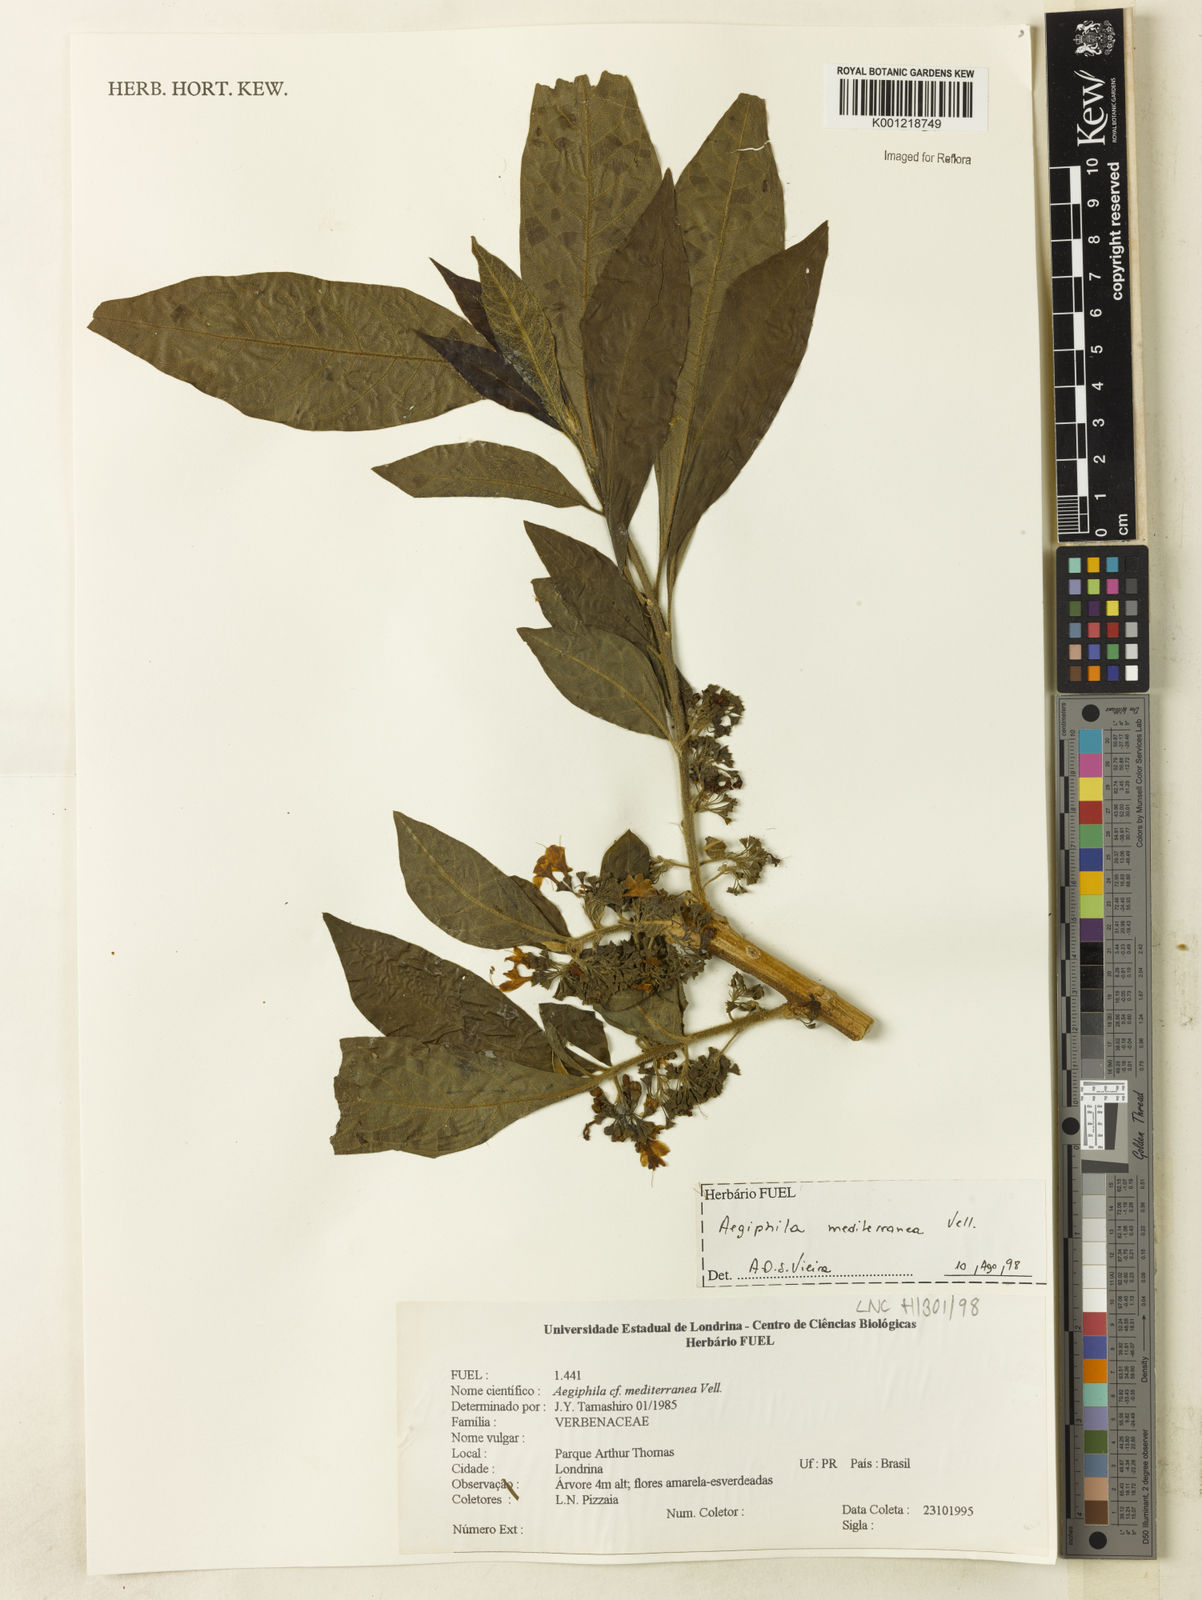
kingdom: Plantae
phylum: Tracheophyta
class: Magnoliopsida
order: Lamiales
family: Lamiaceae
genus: Aegiphila
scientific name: Aegiphila mediterranea
